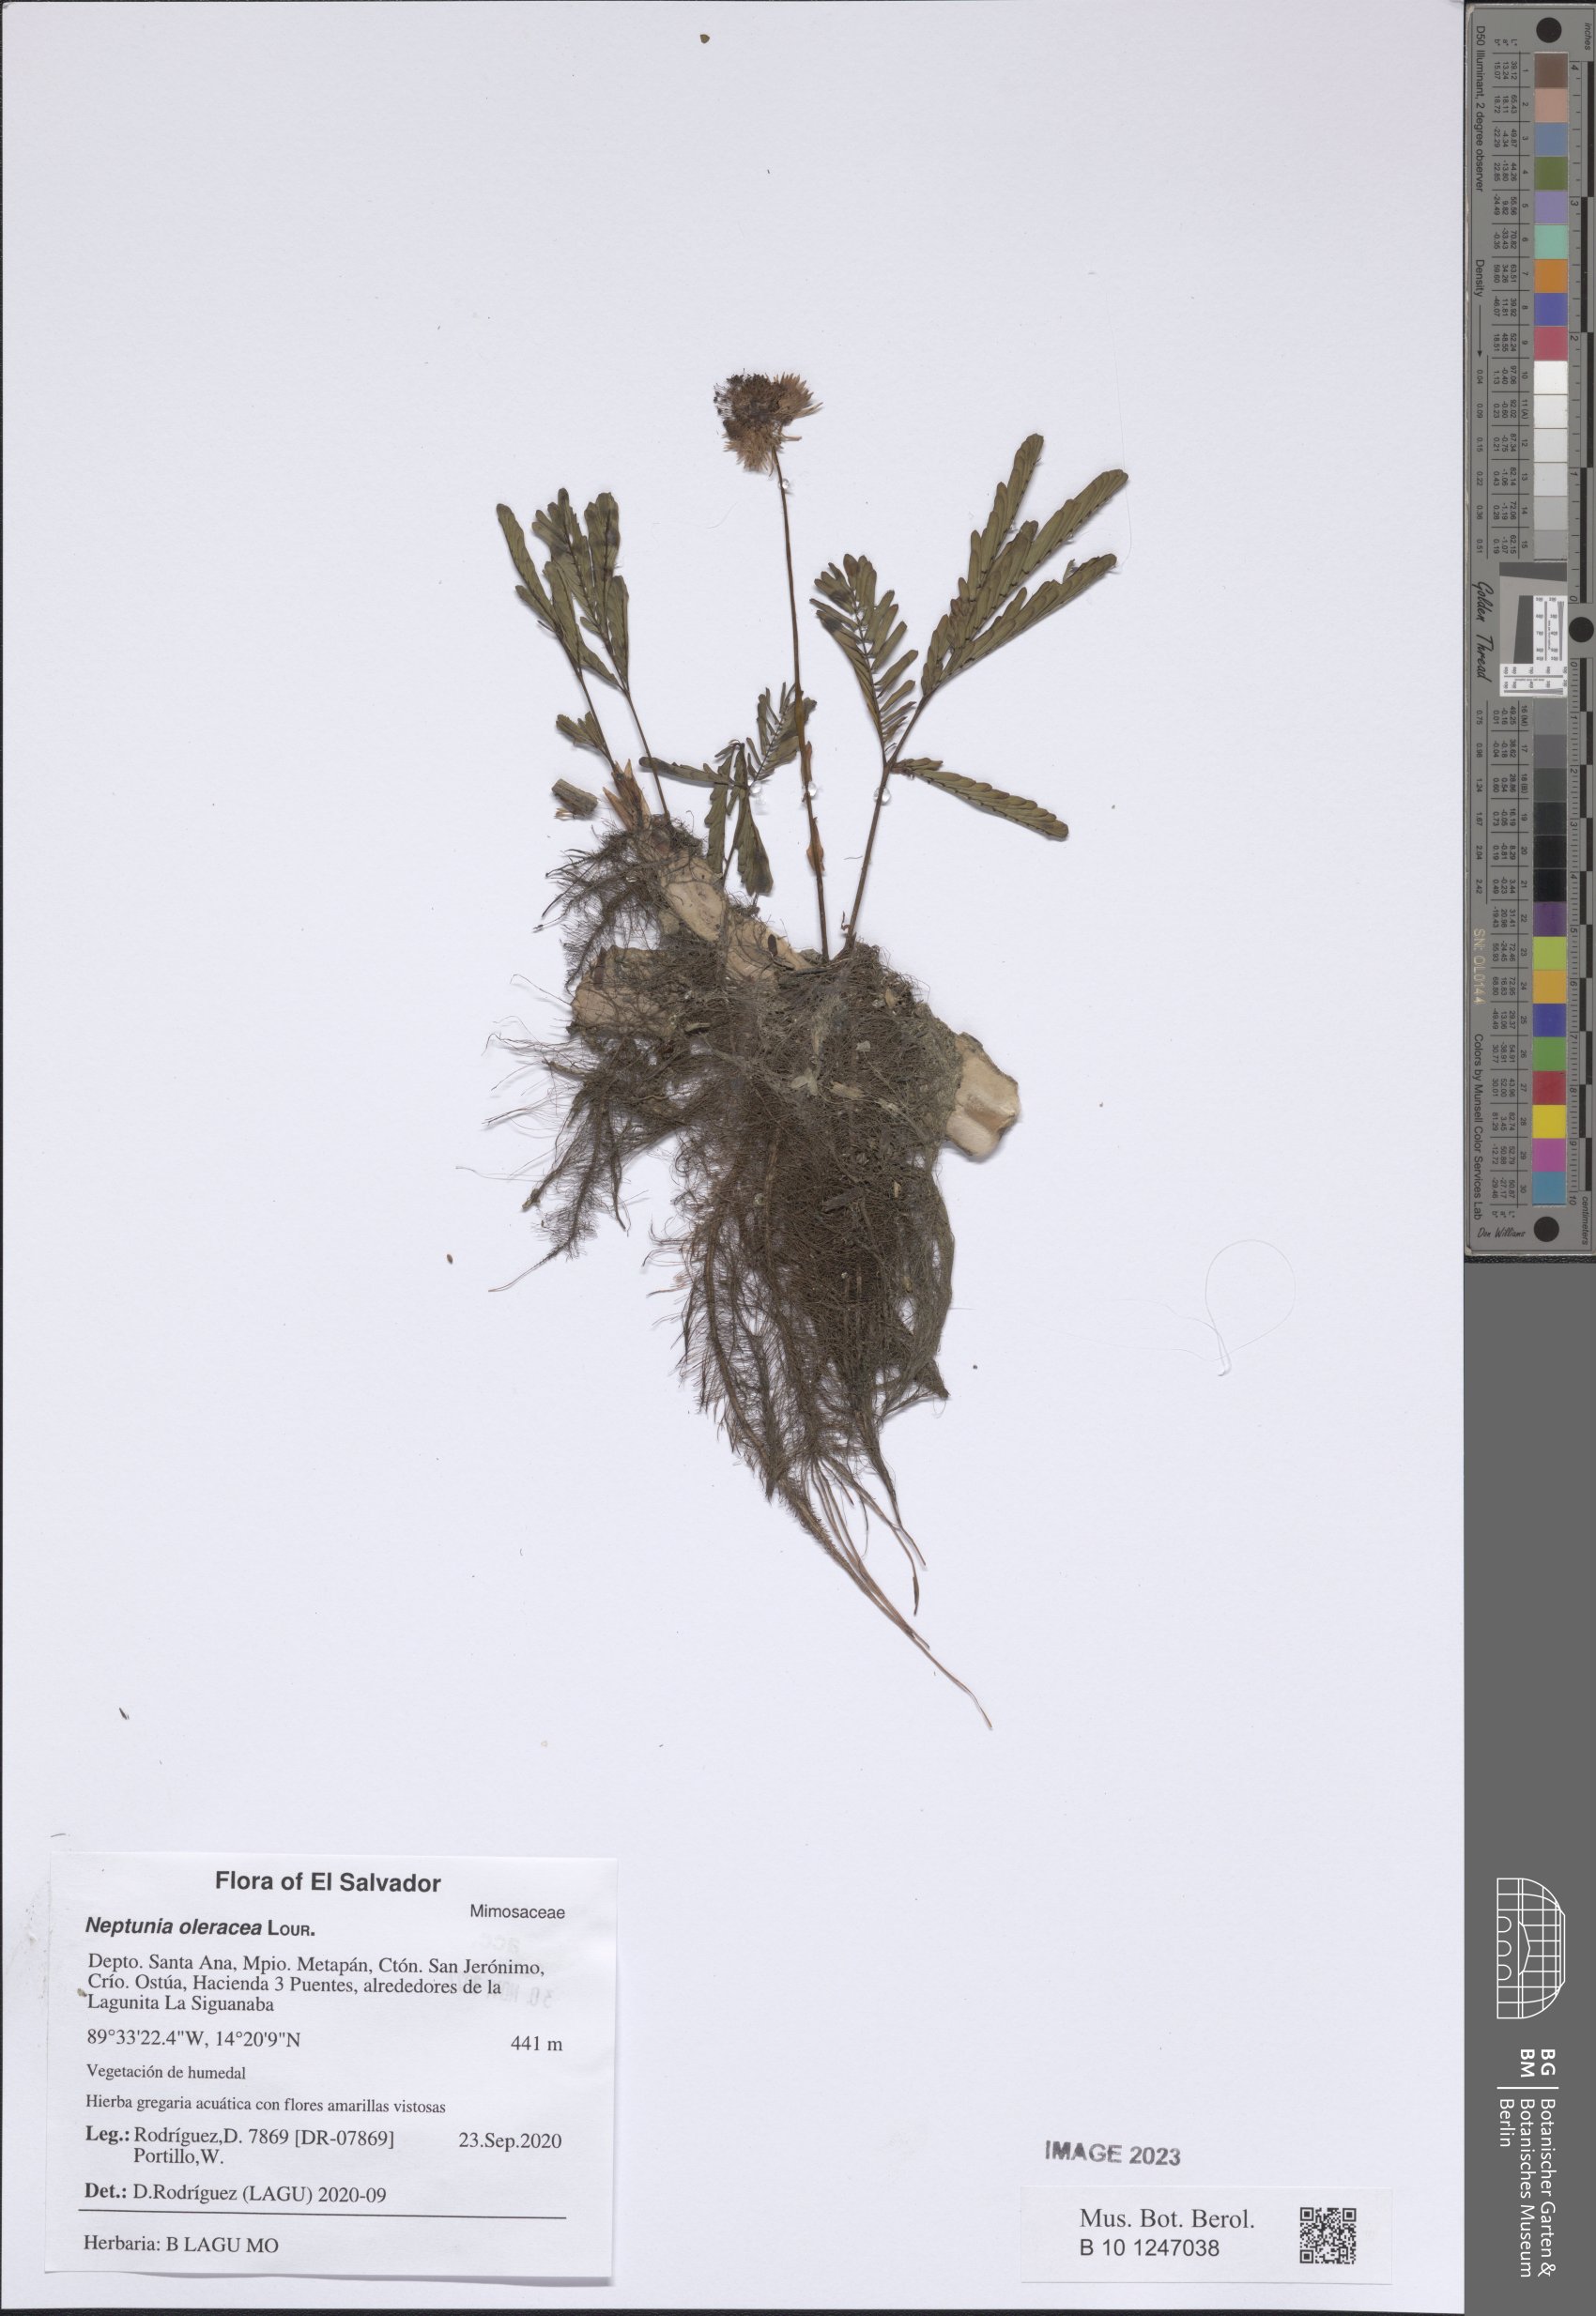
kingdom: Plantae
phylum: Tracheophyta
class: Magnoliopsida
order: Fabales
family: Fabaceae
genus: Neptunia
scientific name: Neptunia prostrata
